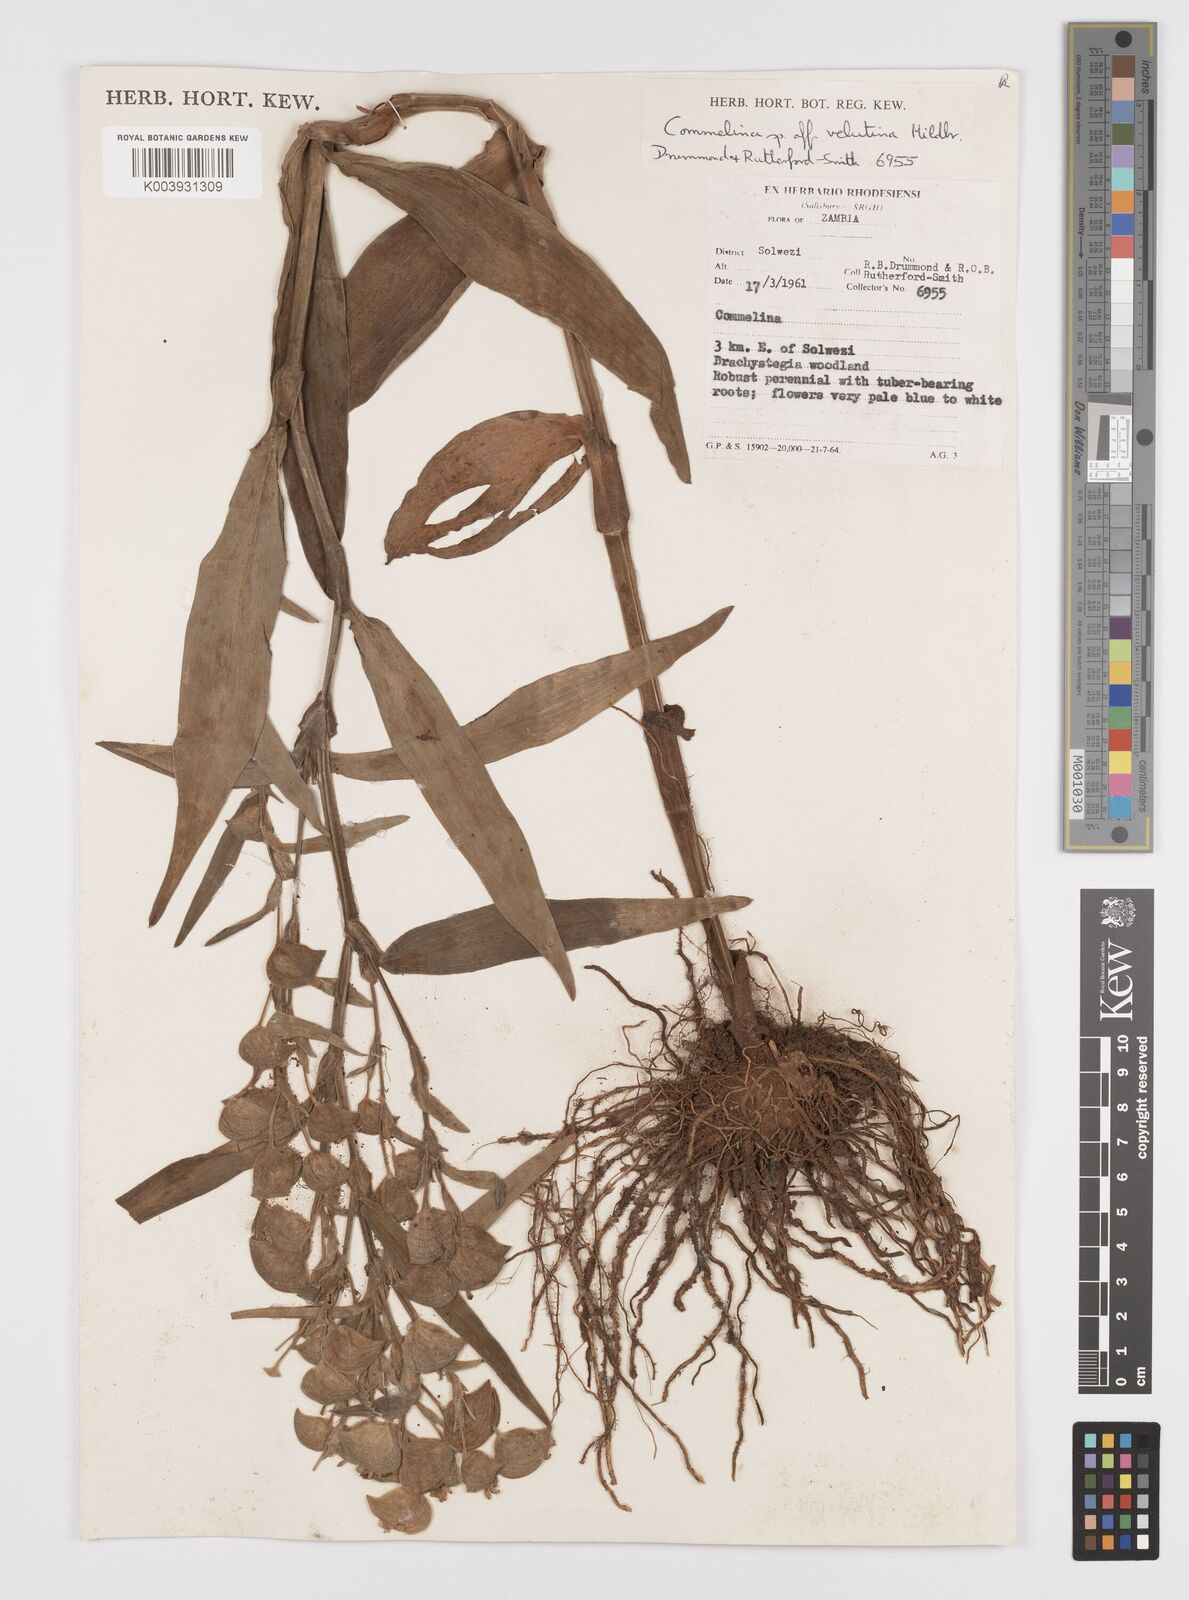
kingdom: Plantae
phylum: Tracheophyta
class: Liliopsida
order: Commelinales
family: Commelinaceae
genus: Commelina
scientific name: Commelina velutina
